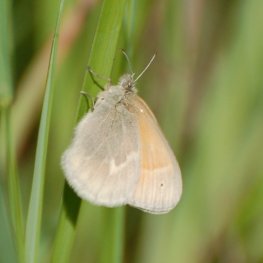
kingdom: Animalia
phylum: Arthropoda
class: Insecta
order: Lepidoptera
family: Nymphalidae
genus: Coenonympha
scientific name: Coenonympha tullia
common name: Large Heath
